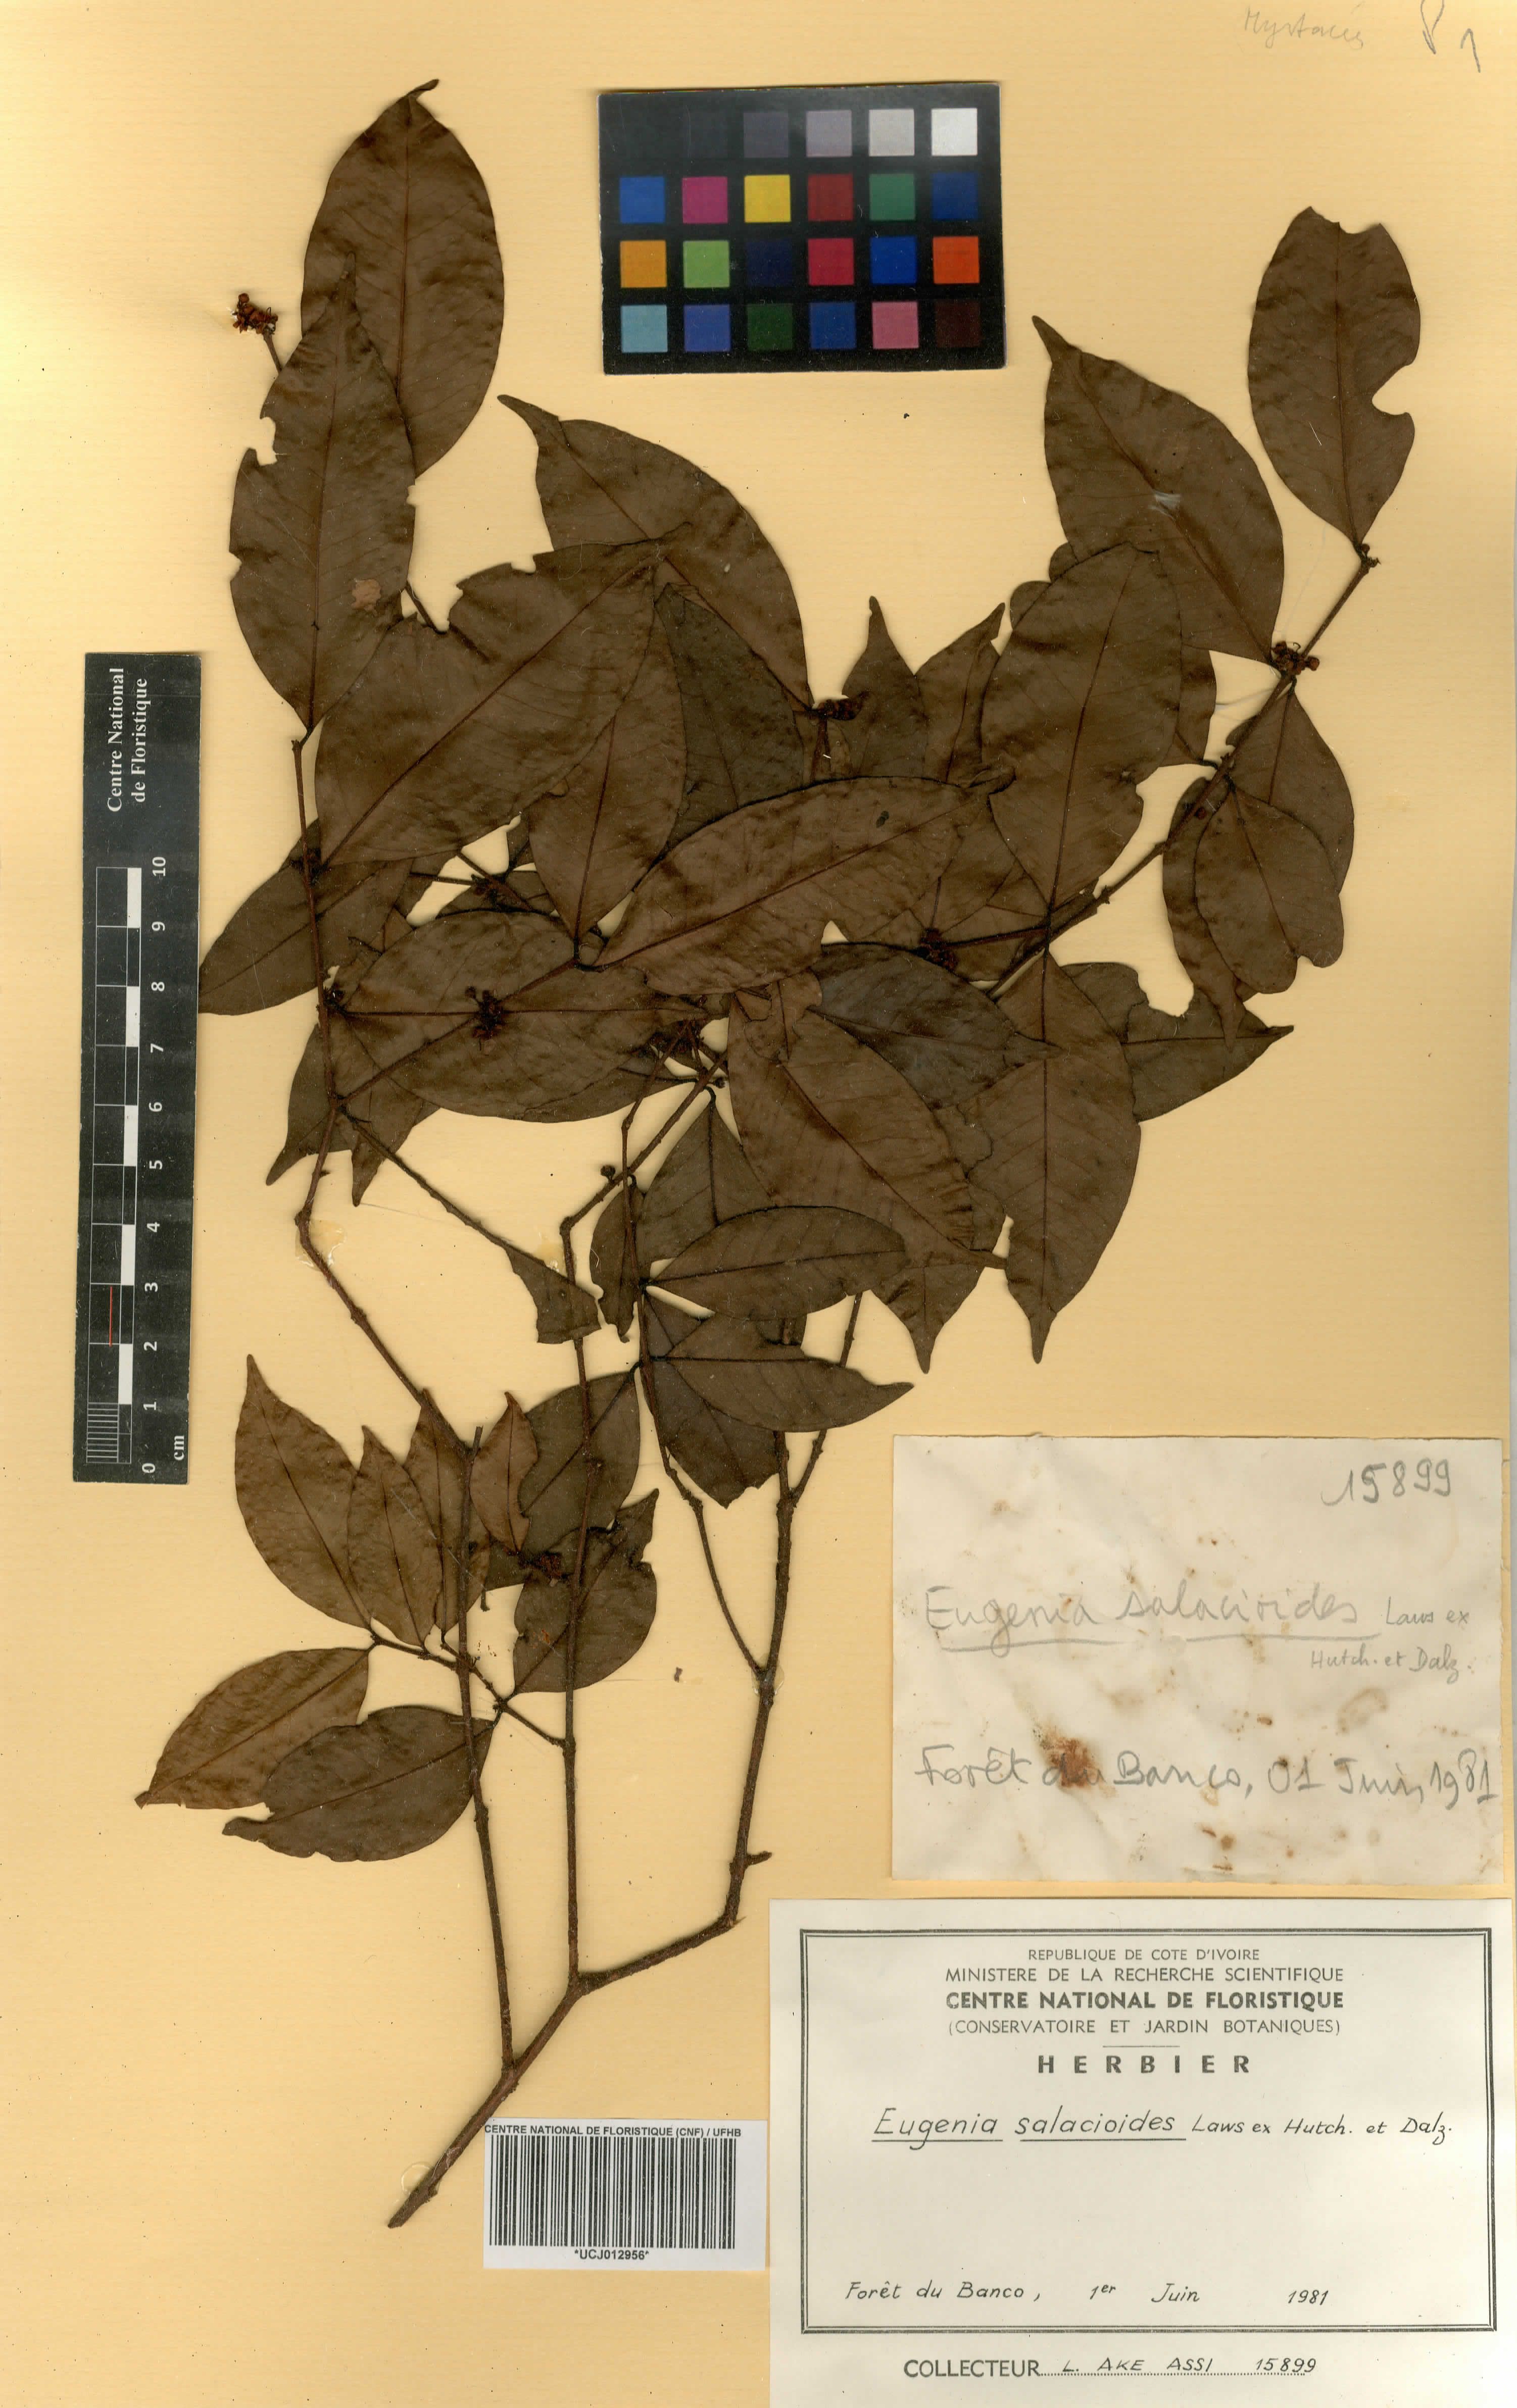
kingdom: Plantae
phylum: Tracheophyta
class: Magnoliopsida
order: Myrtales
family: Myrtaceae
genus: Eugenia
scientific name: Eugenia salacioides
